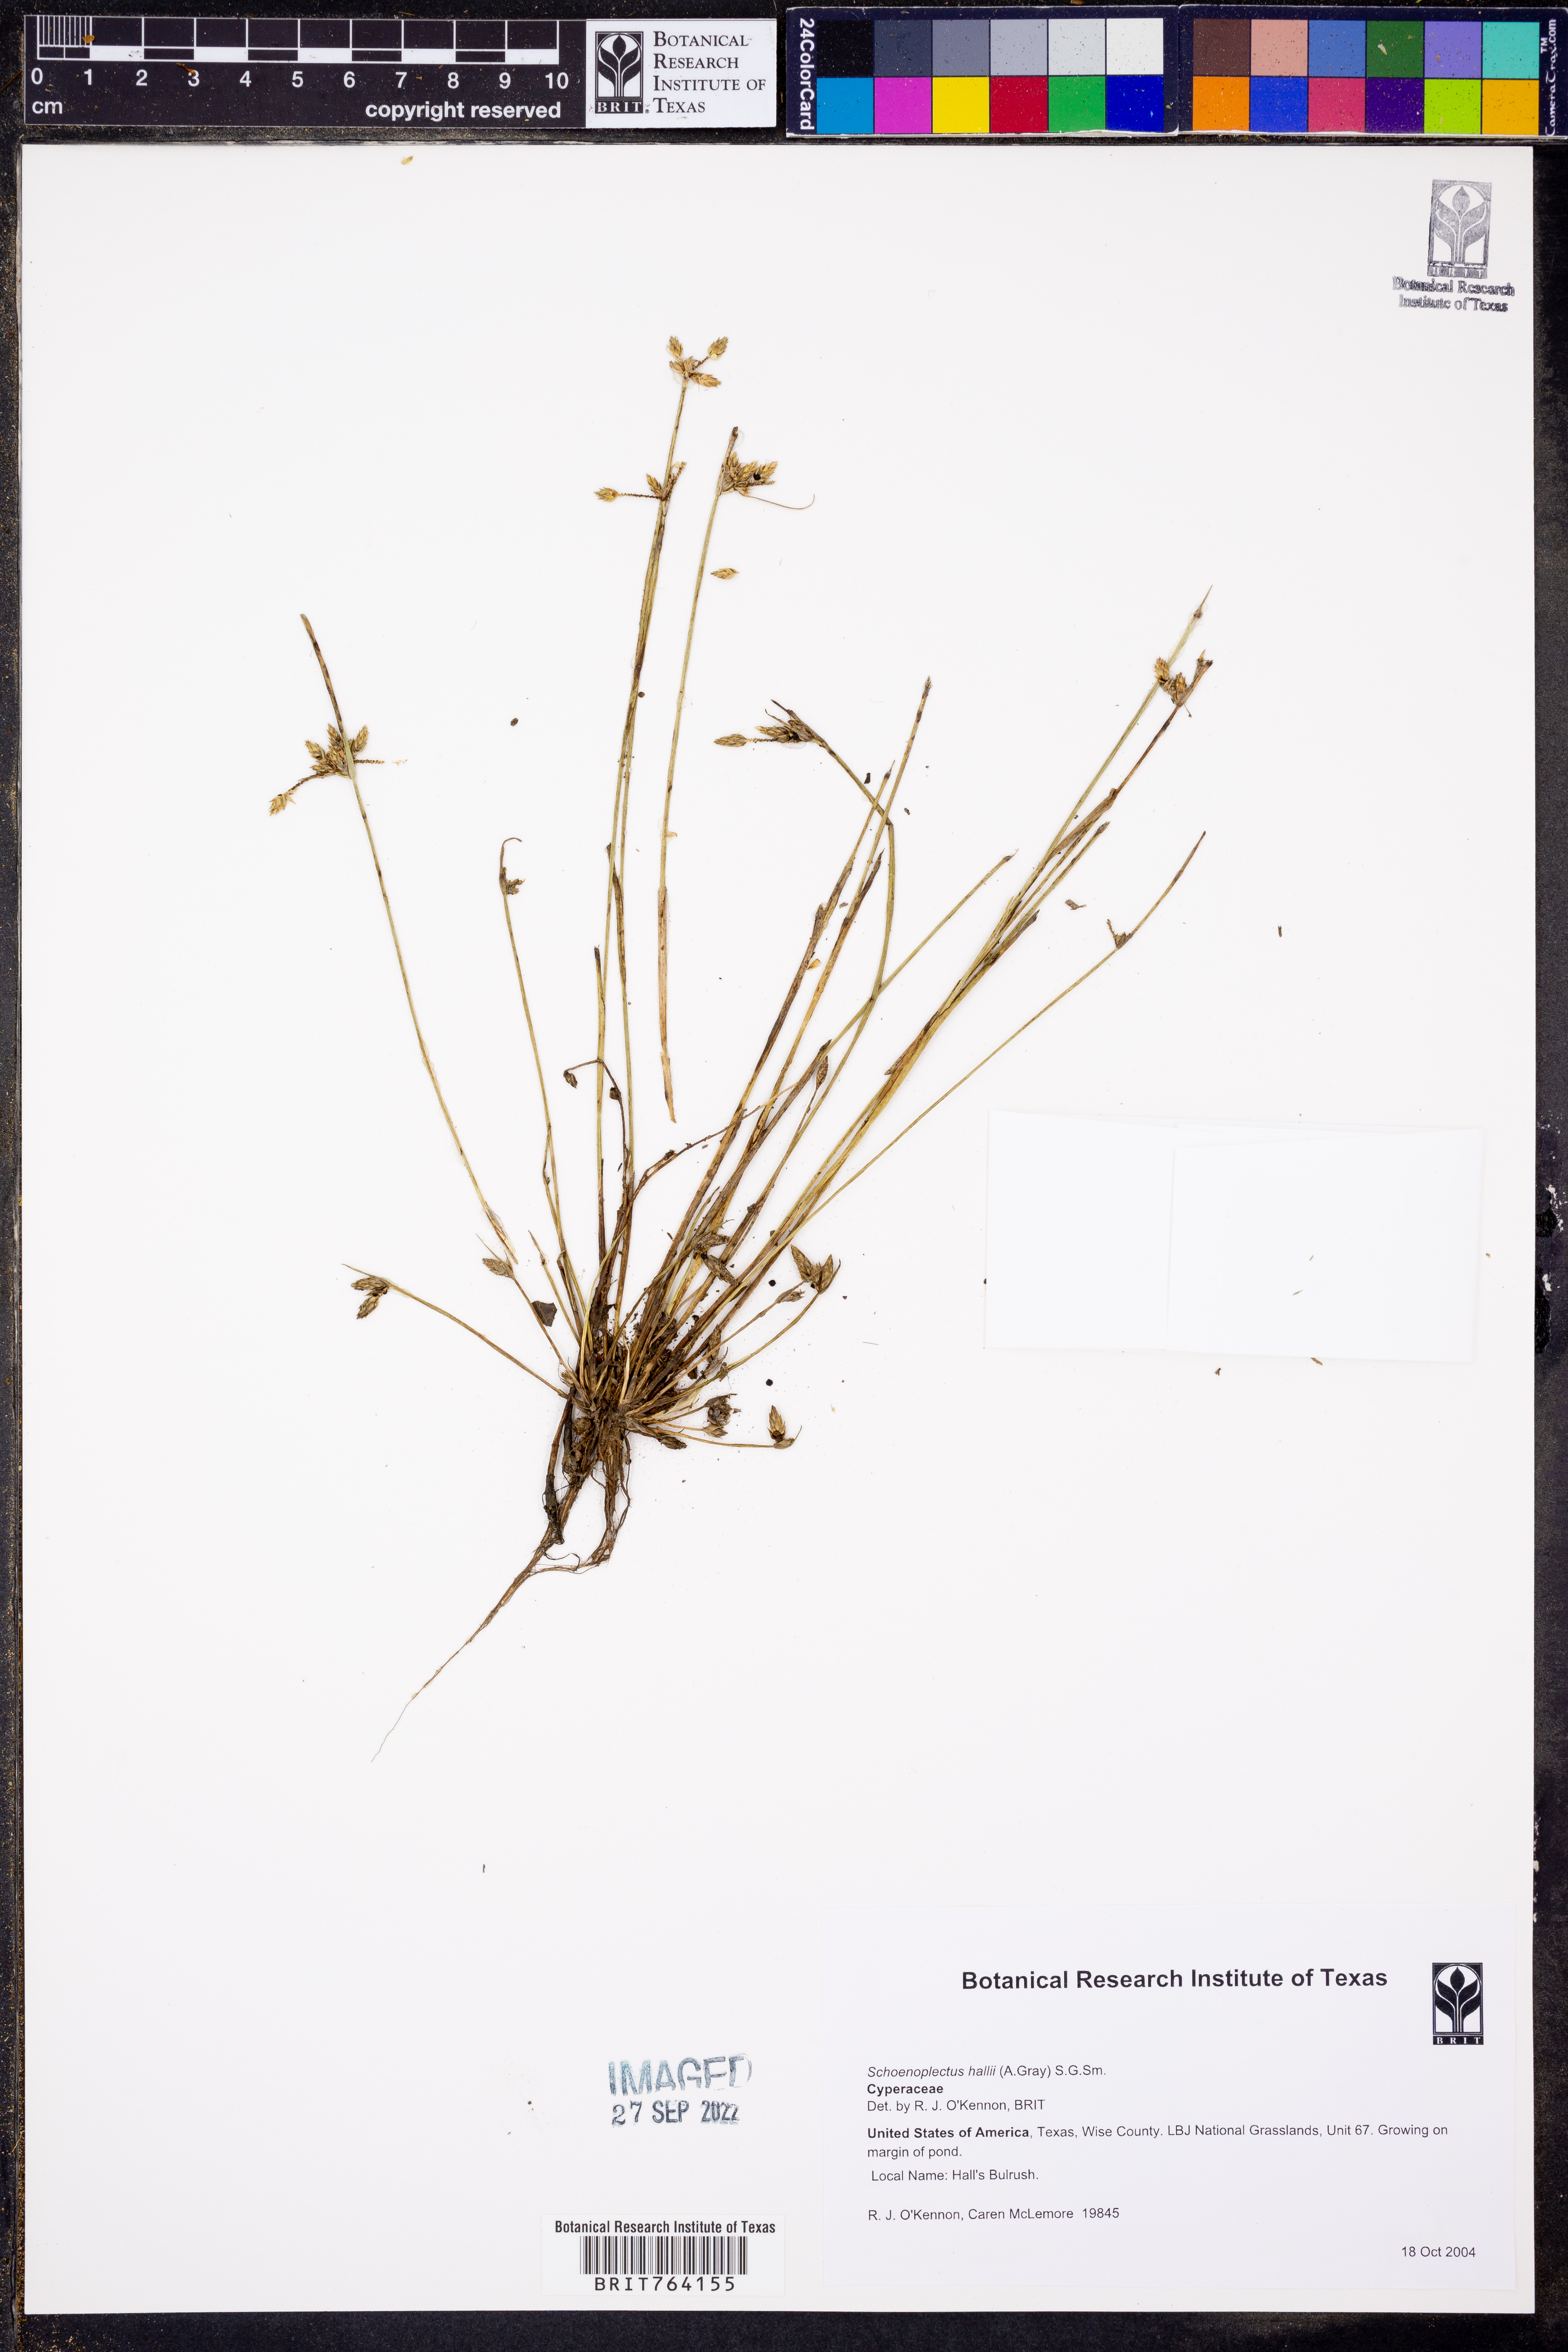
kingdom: Plantae
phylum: Tracheophyta
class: Liliopsida
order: Poales
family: Cyperaceae
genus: Schoenoplectiella
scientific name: Schoenoplectiella hallii
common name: Hall's bullrush
